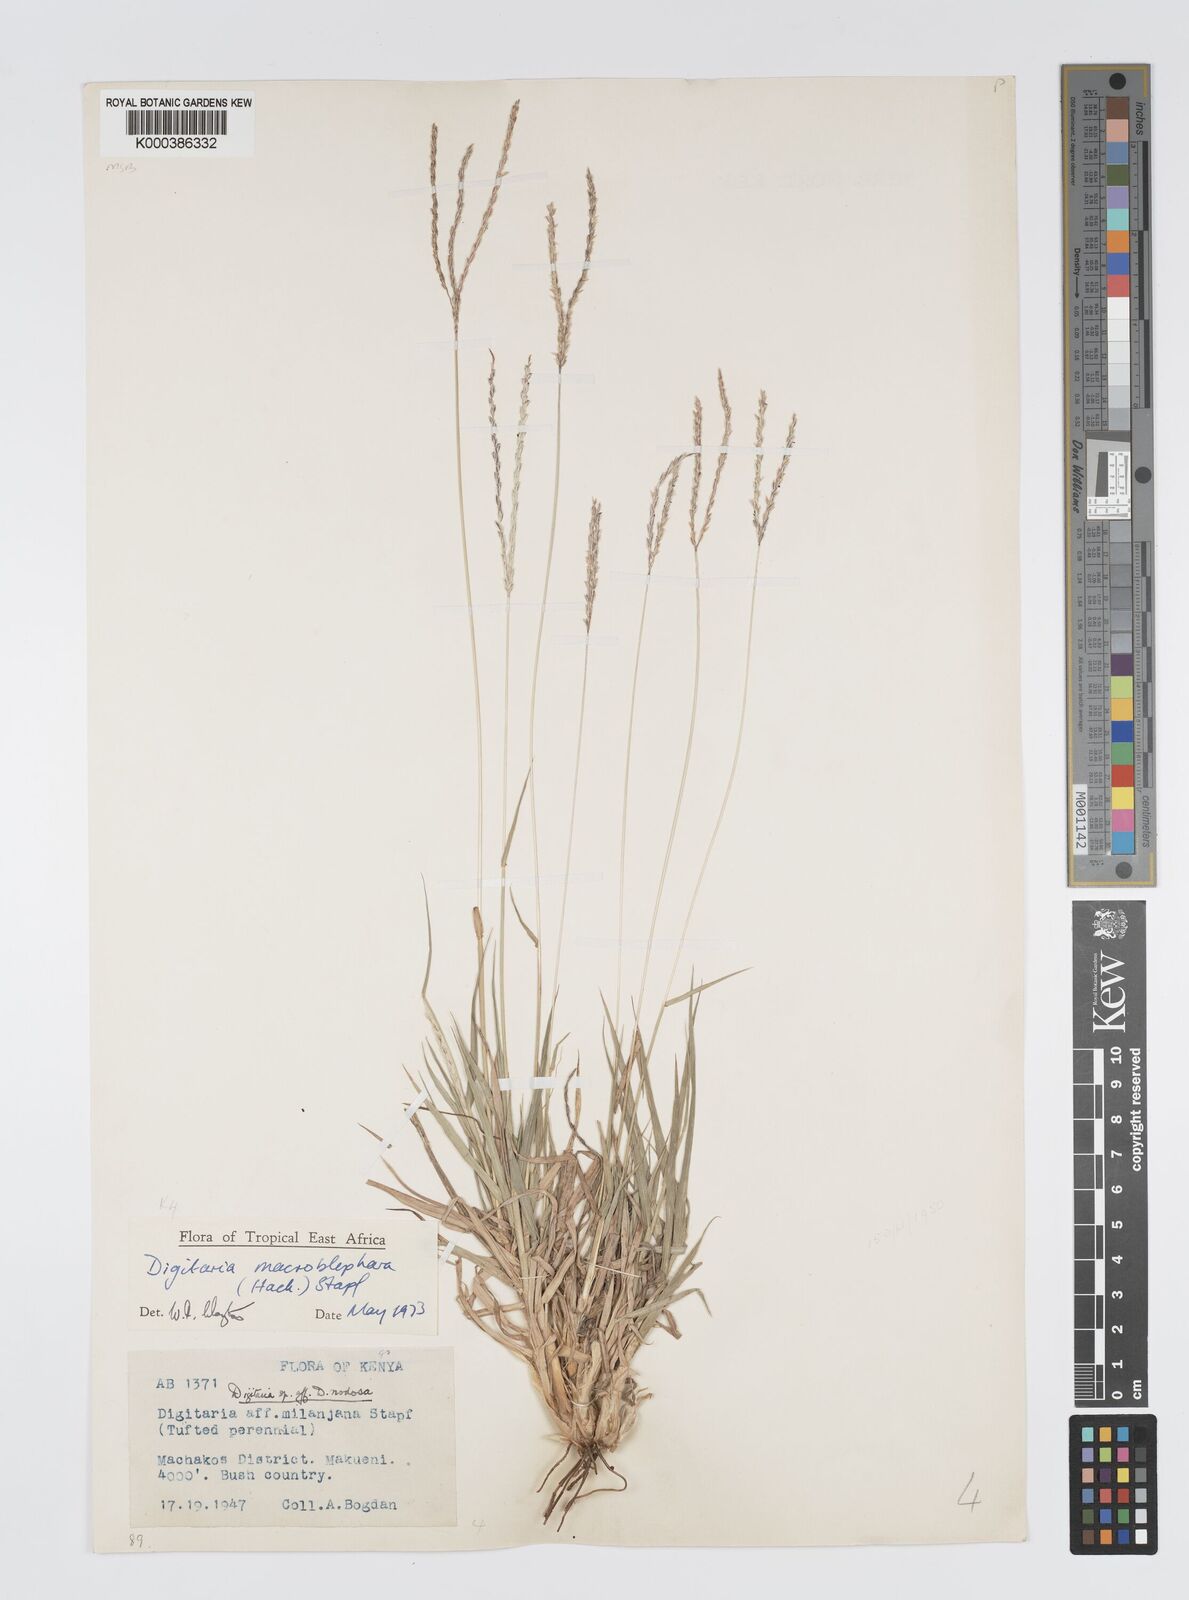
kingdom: Plantae
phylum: Tracheophyta
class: Liliopsida
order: Poales
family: Poaceae
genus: Digitaria
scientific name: Digitaria macroblephara
